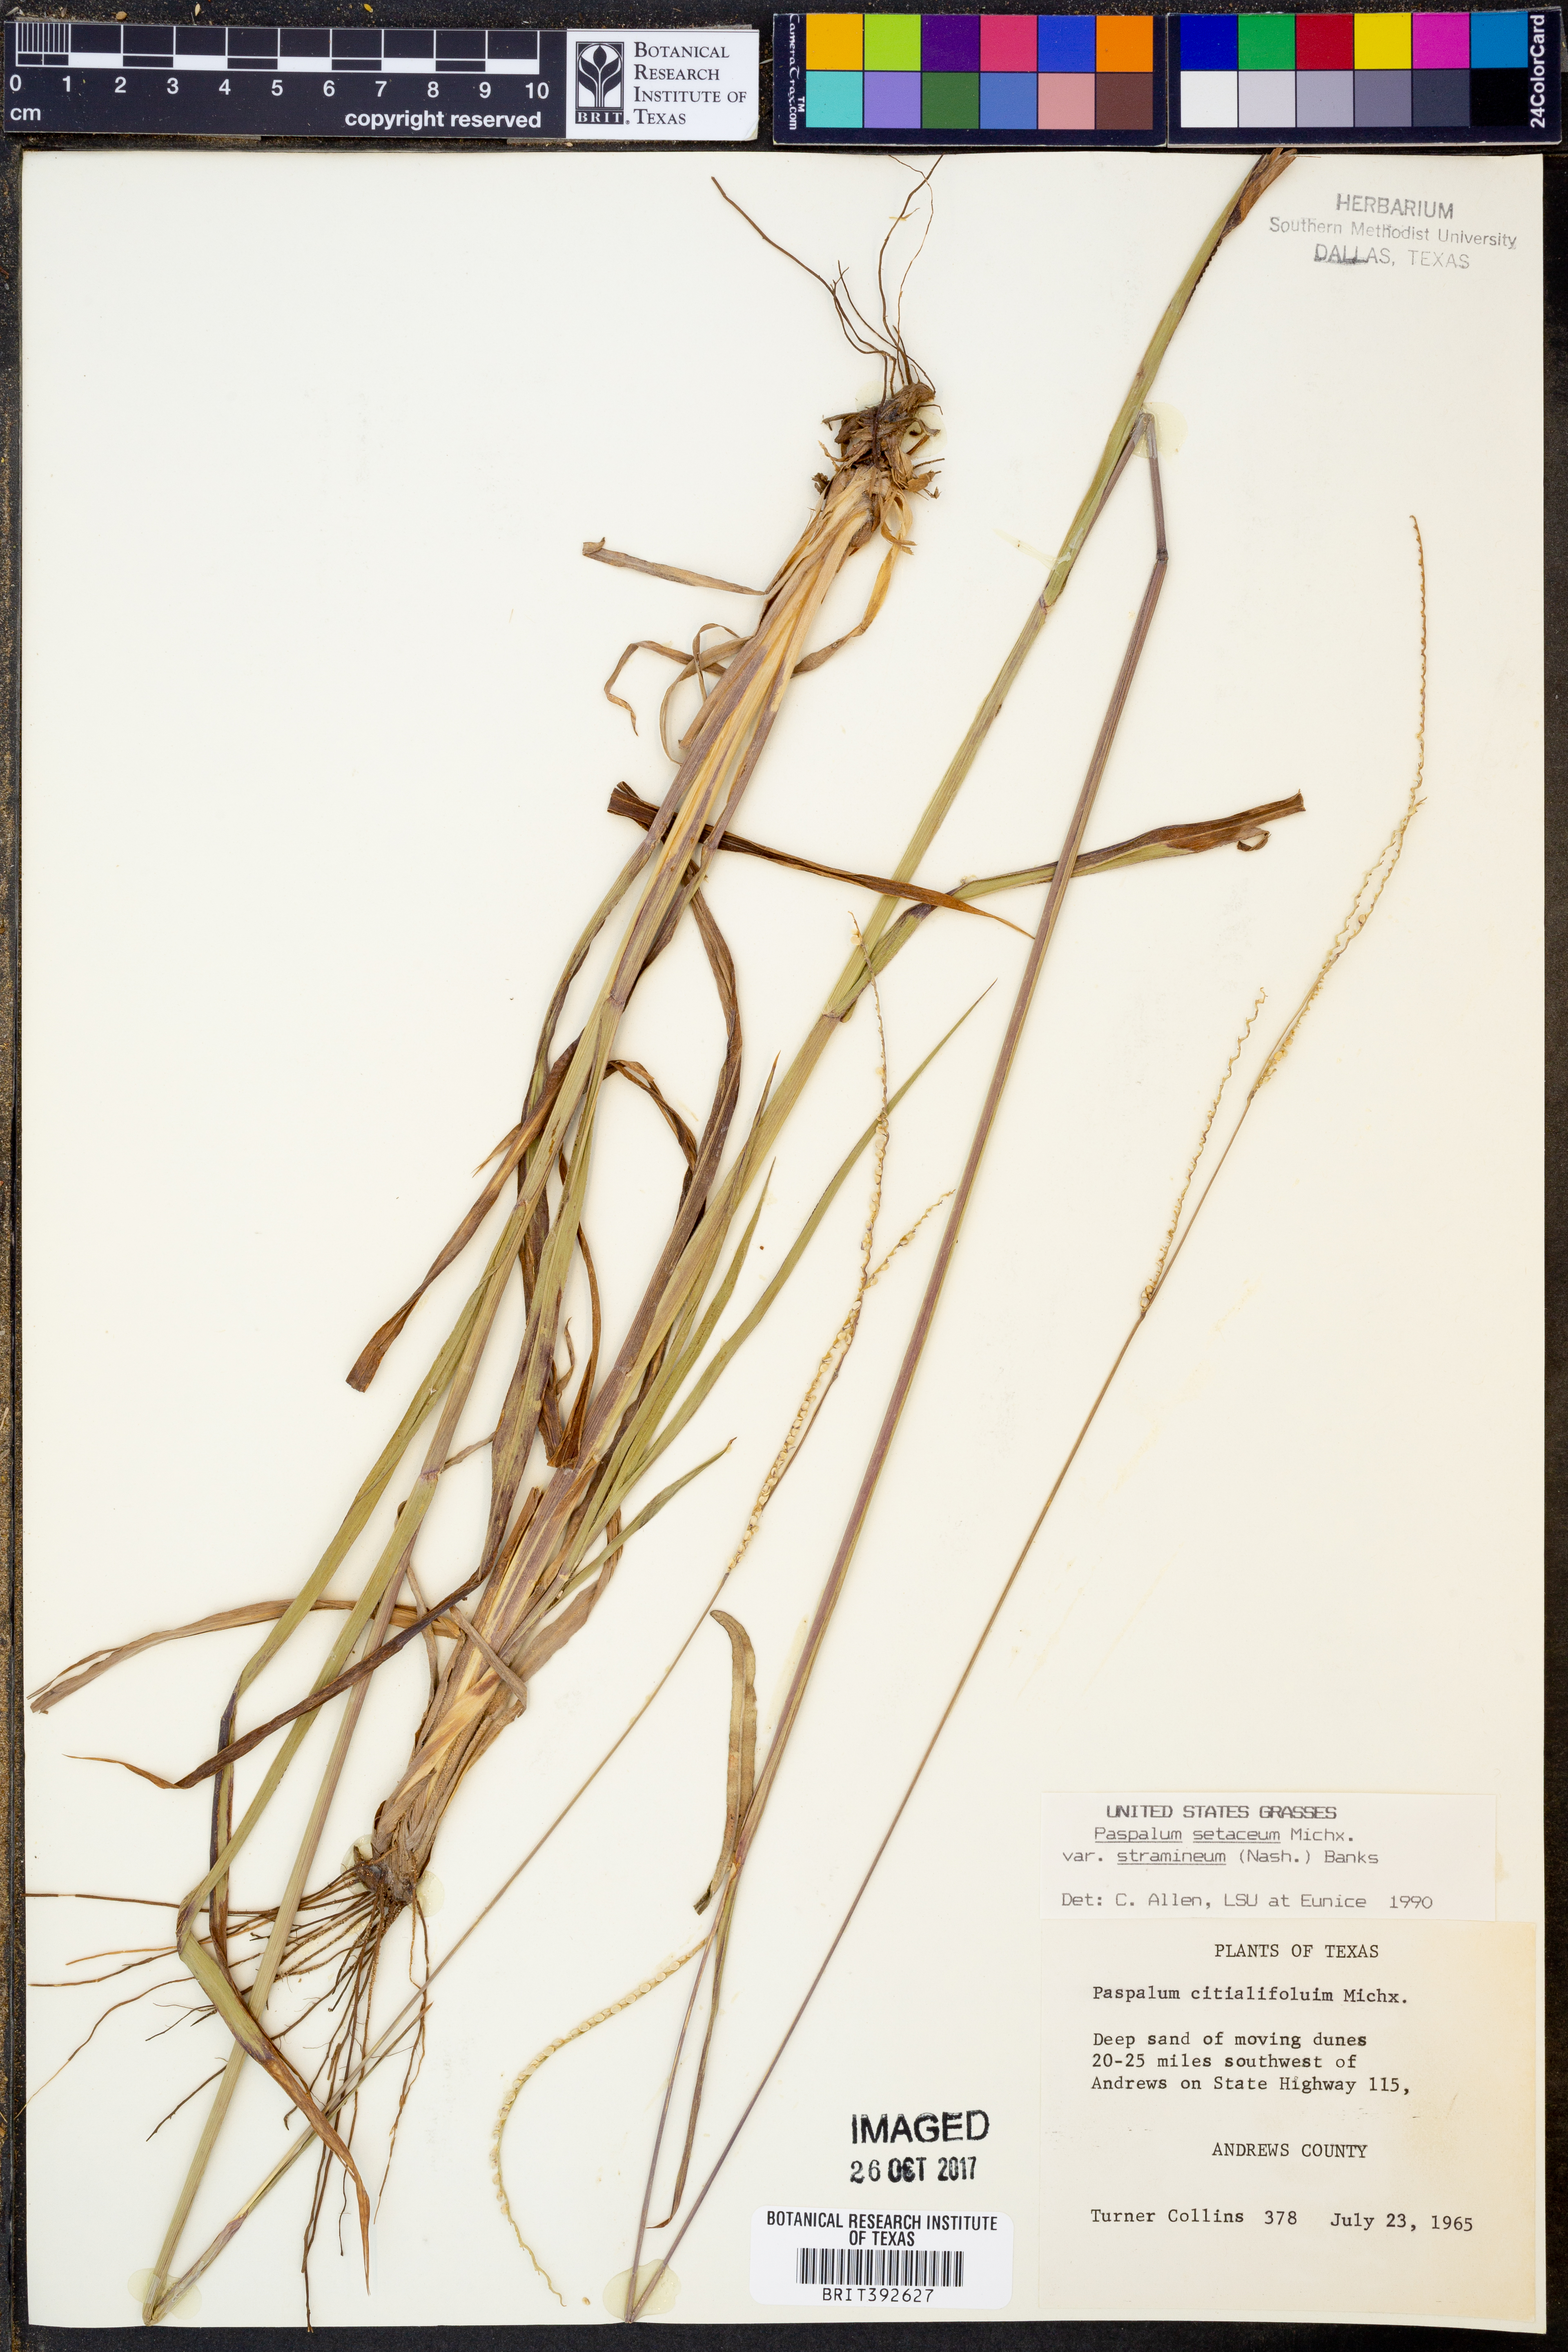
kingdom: Plantae
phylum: Tracheophyta
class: Liliopsida
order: Poales
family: Poaceae
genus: Paspalum
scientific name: Paspalum setaceum
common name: Slender paspalum
